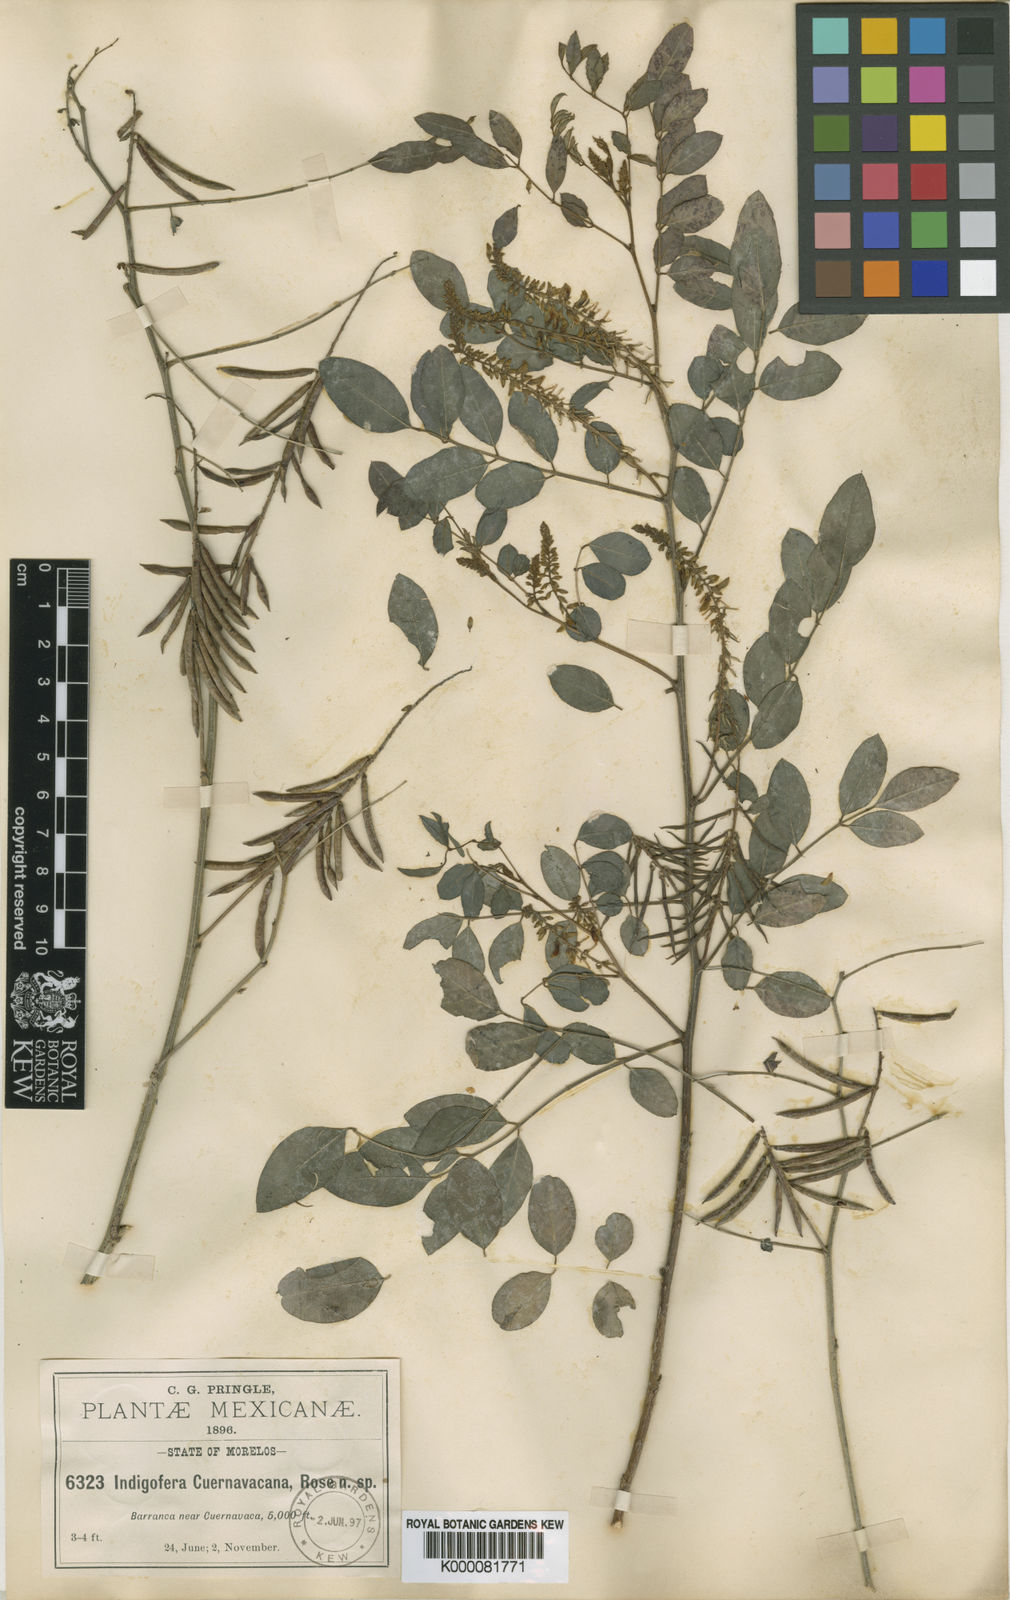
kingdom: Plantae
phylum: Tracheophyta
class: Magnoliopsida
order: Fabales
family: Fabaceae
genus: Indigofera
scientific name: Indigofera cuernavacana
